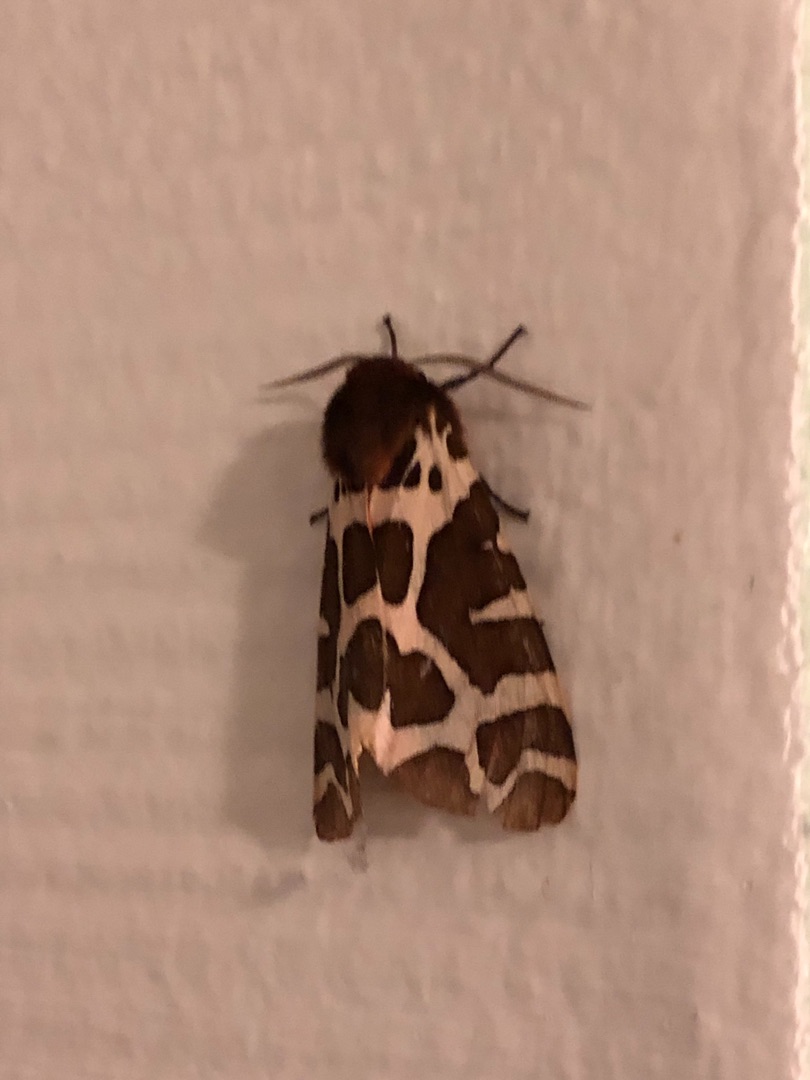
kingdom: Animalia
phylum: Arthropoda
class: Insecta
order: Lepidoptera
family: Erebidae
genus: Arctia
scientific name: Arctia caja
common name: Brun bjørn
